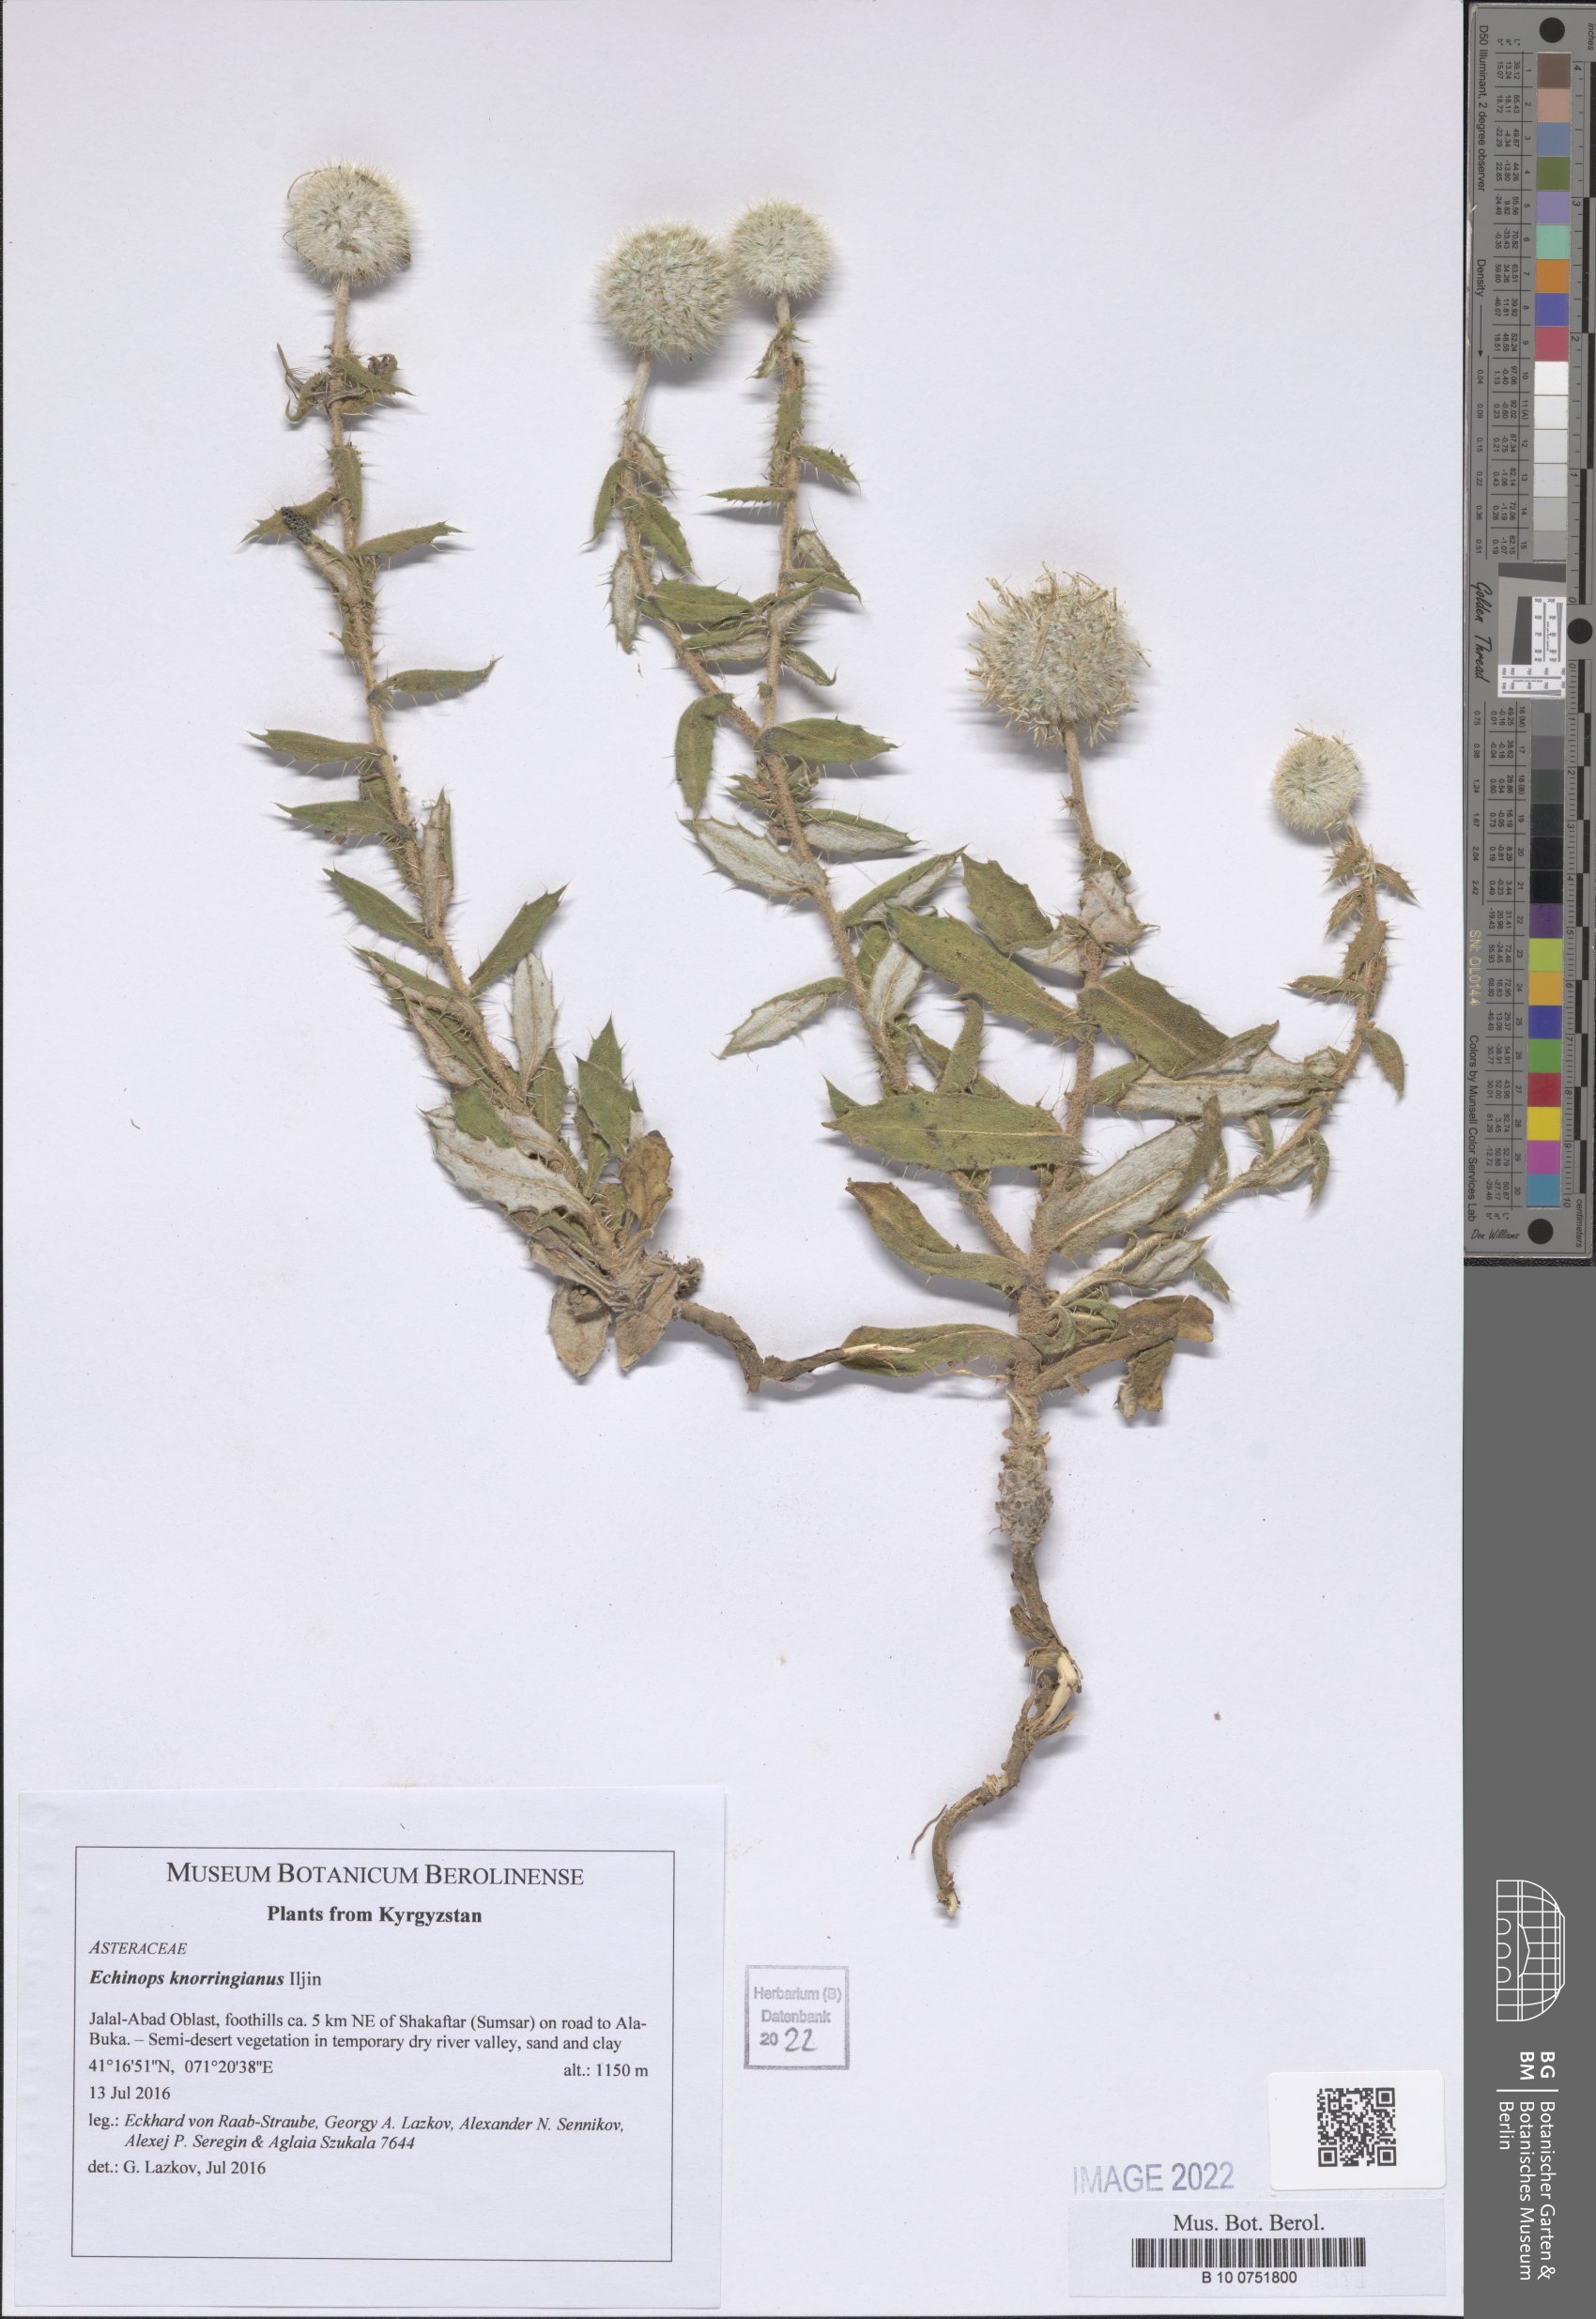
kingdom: Plantae
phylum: Tracheophyta
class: Magnoliopsida
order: Asterales
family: Asteraceae
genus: Echinops
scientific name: Echinops
